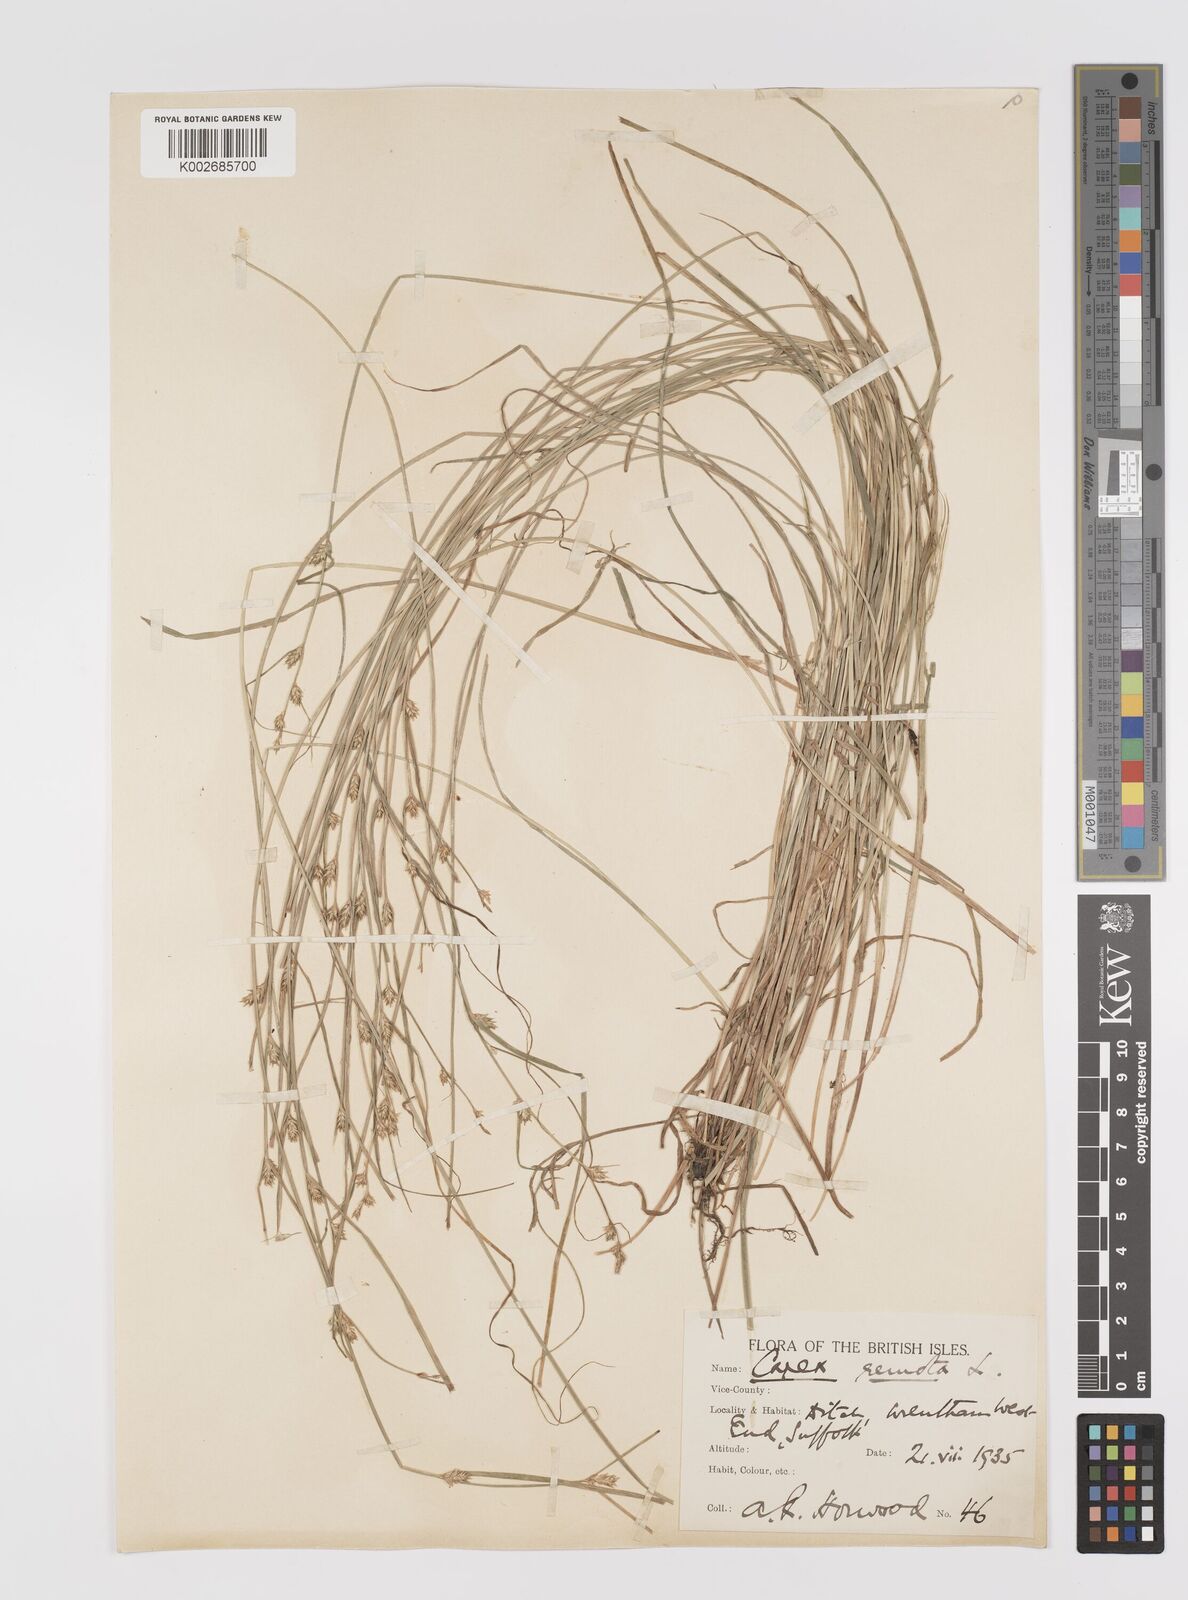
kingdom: Plantae
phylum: Tracheophyta
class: Liliopsida
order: Poales
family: Cyperaceae
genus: Carex
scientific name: Carex remota
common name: Remote sedge
